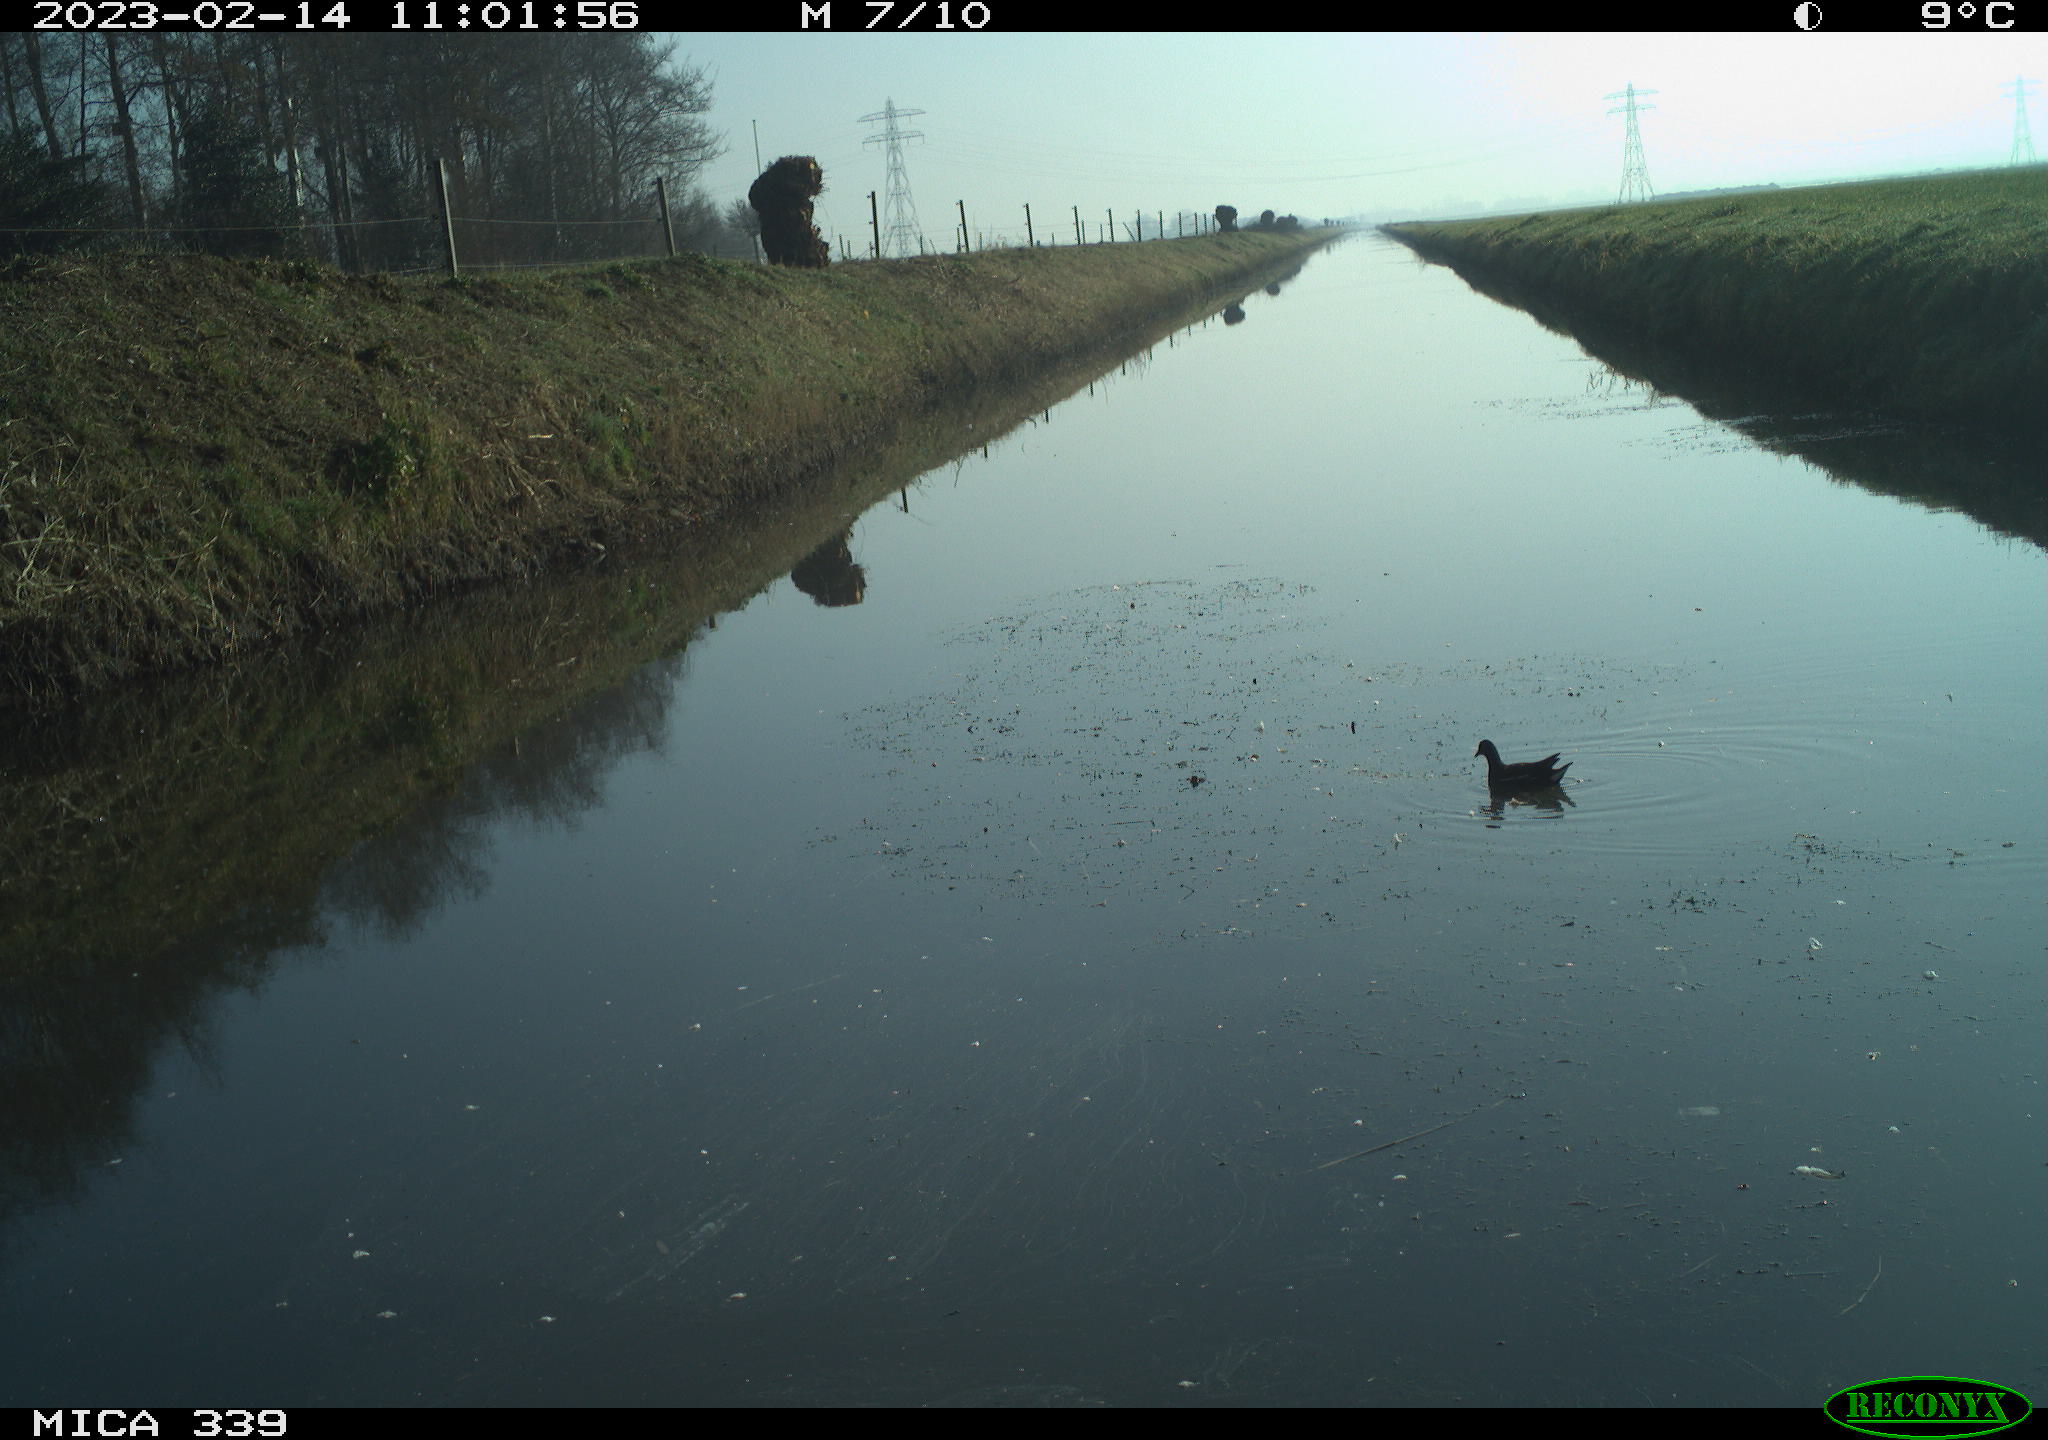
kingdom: Animalia
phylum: Chordata
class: Aves
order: Gruiformes
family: Rallidae
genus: Gallinula
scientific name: Gallinula chloropus
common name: Common moorhen
